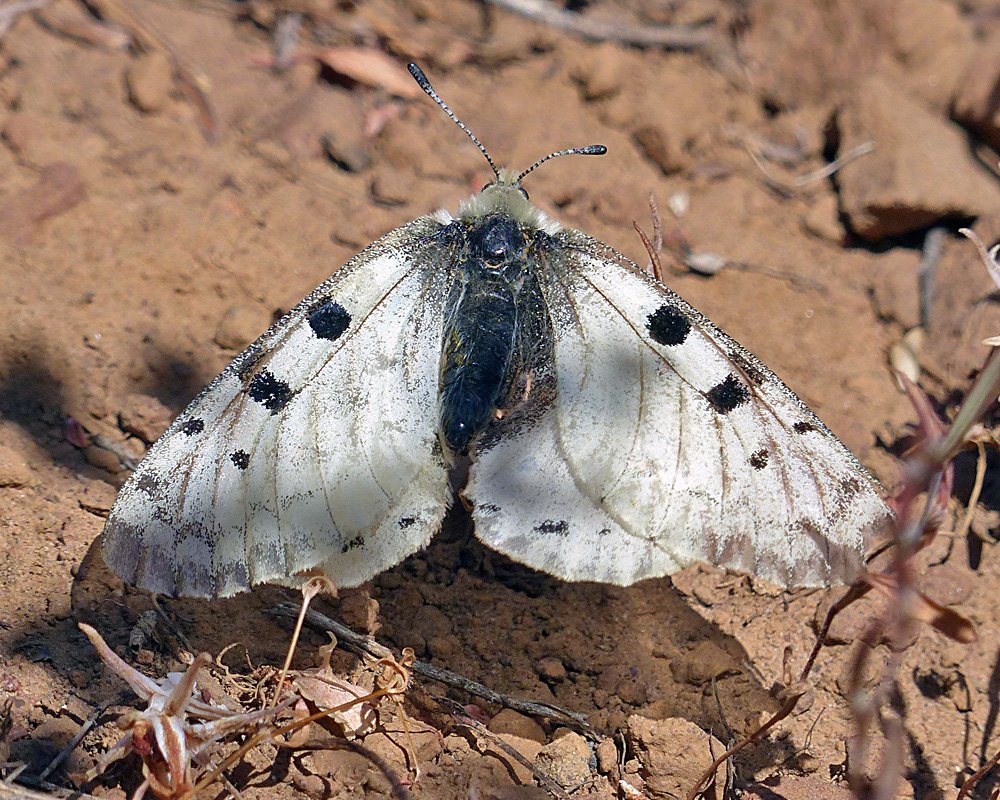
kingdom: Animalia
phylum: Arthropoda
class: Insecta
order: Lepidoptera
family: Papilionidae
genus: Parnassius
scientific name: Parnassius smintheus
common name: Rocky Mountain Parnassian
